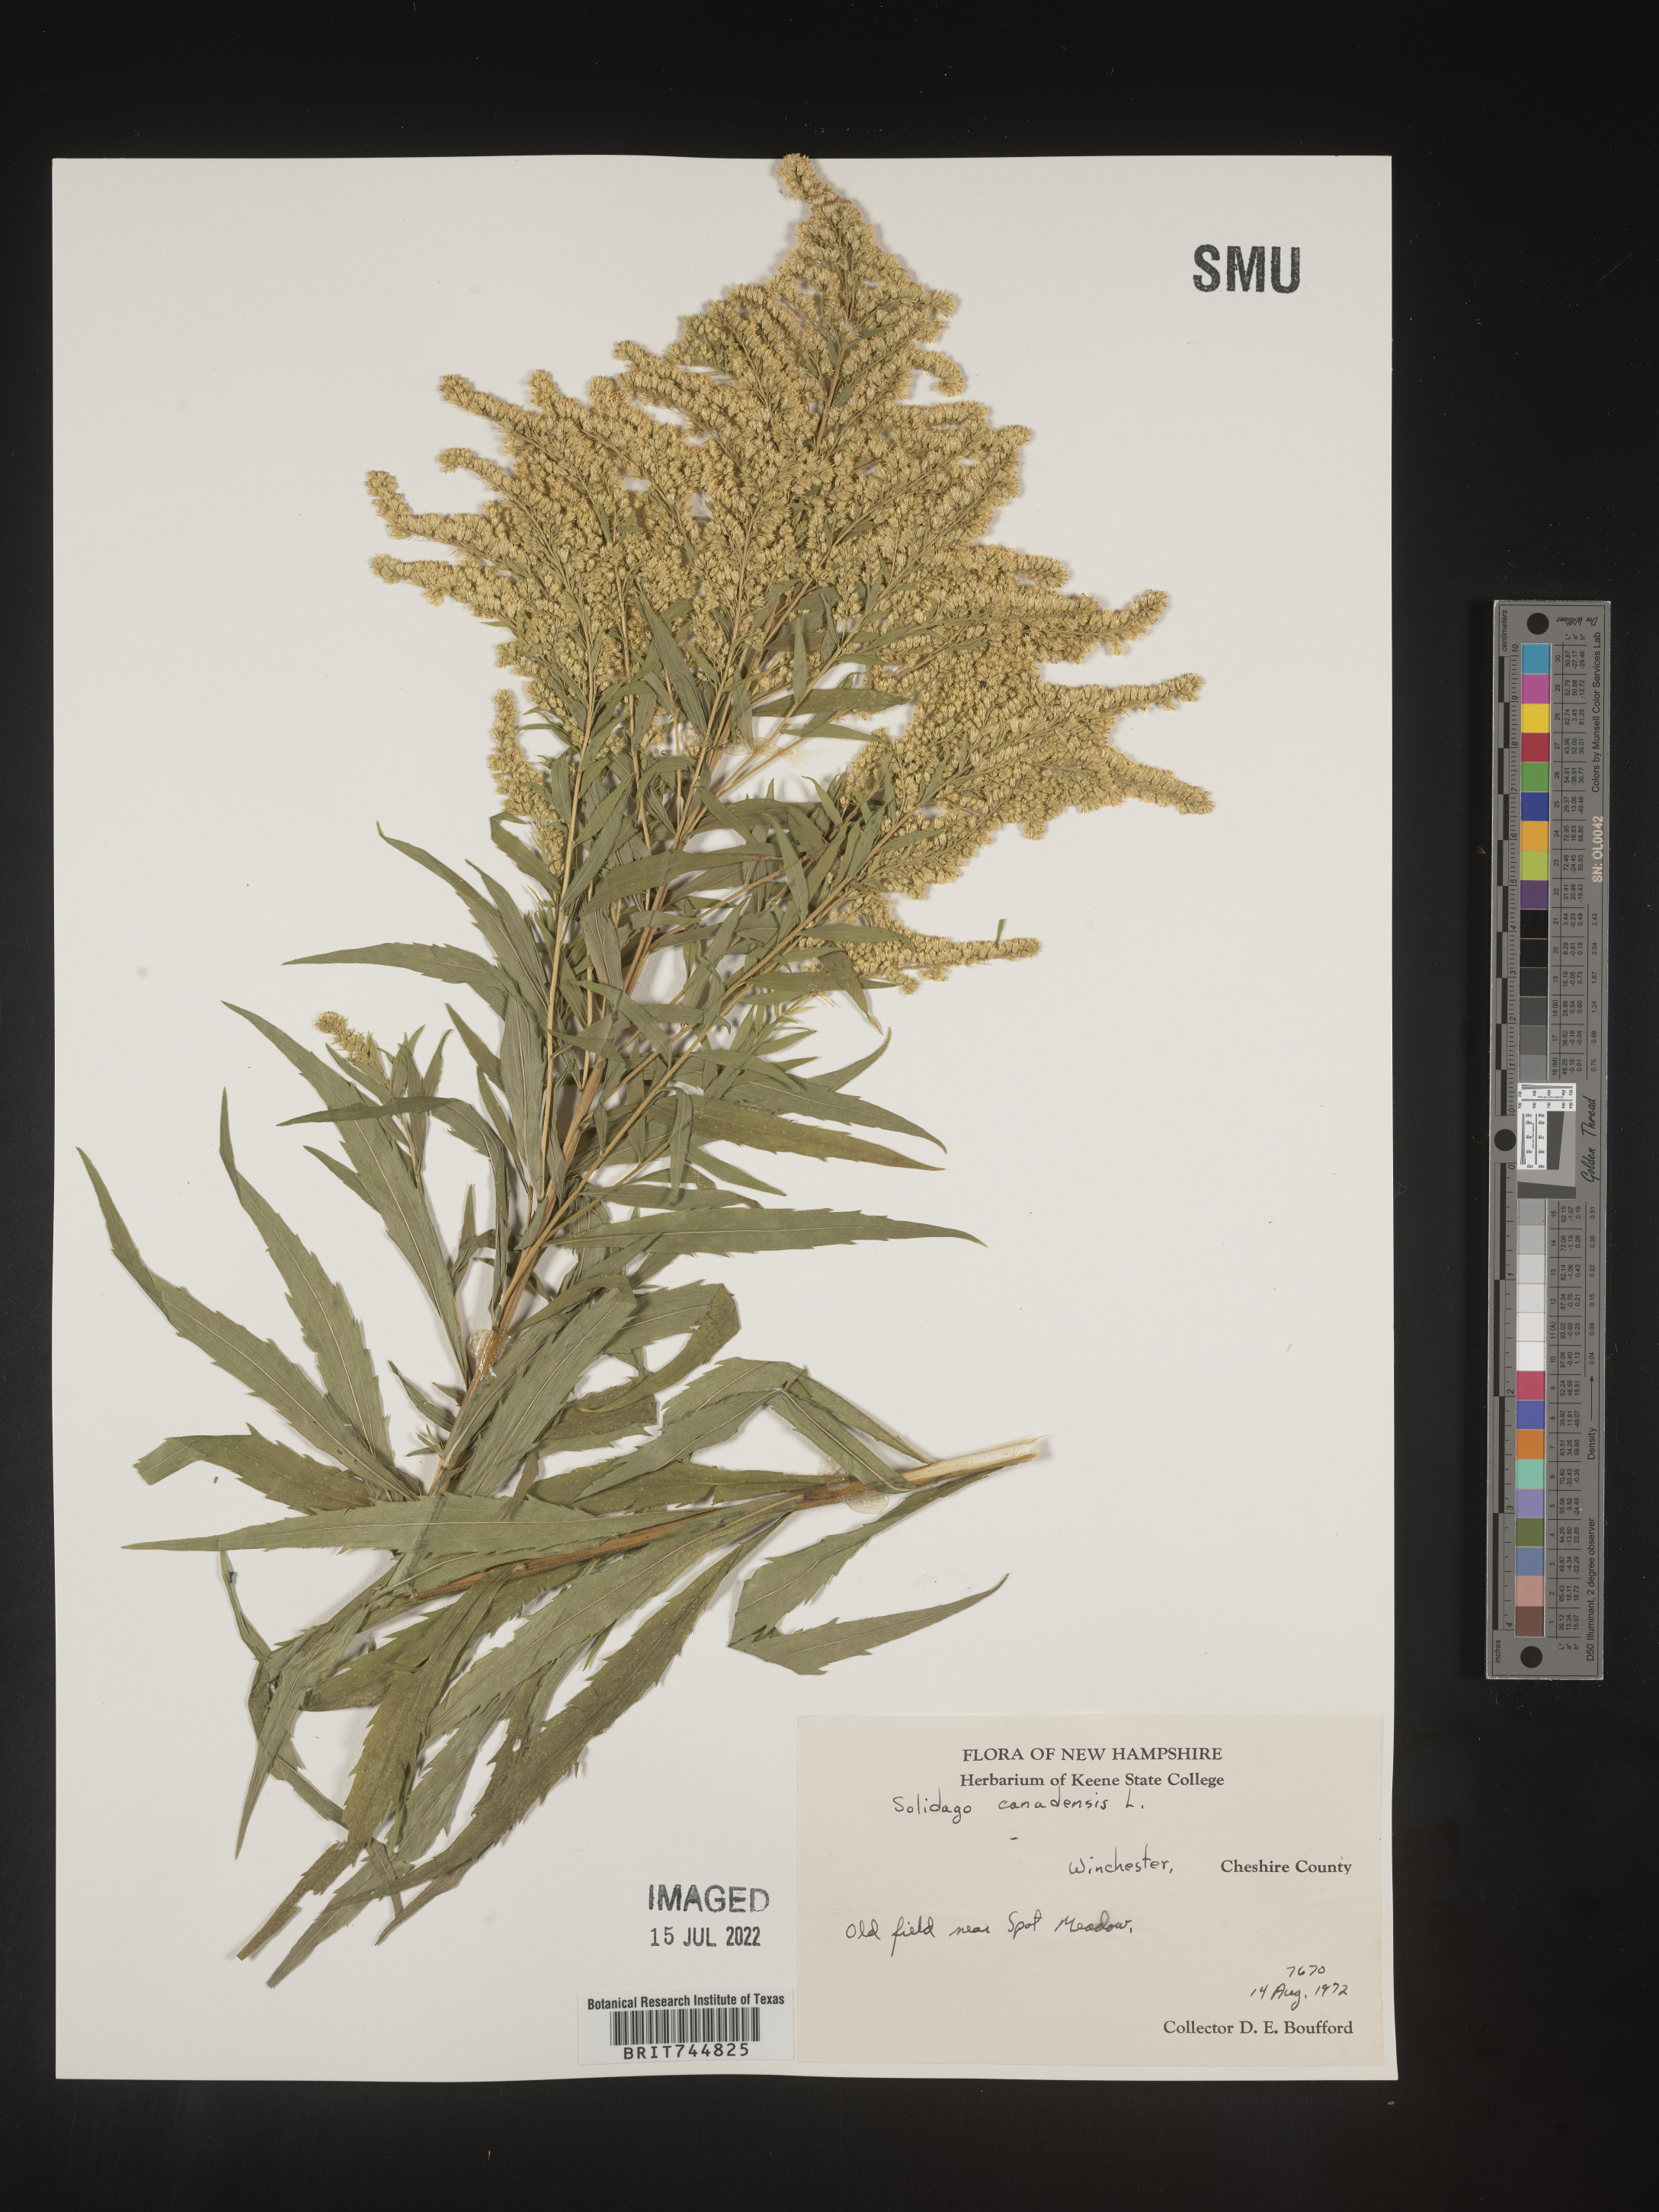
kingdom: Plantae
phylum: Tracheophyta
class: Magnoliopsida
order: Asterales
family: Asteraceae
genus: Solidago
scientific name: Solidago canadensis
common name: Canada goldenrod
